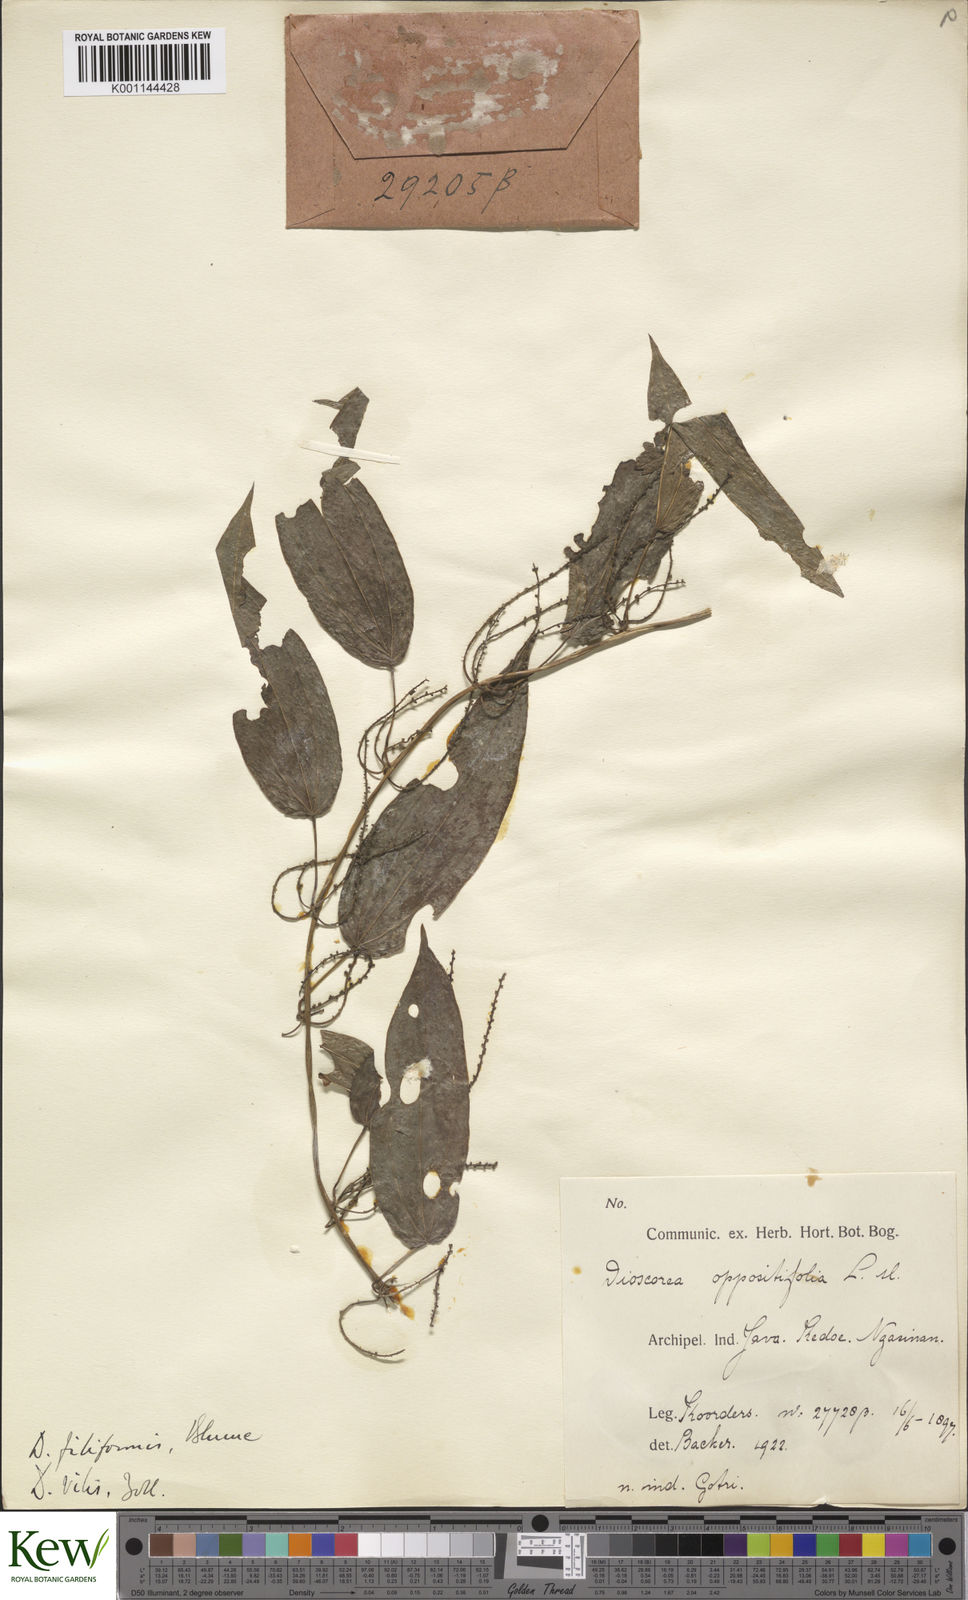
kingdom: Plantae
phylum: Tracheophyta
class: Liliopsida
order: Dioscoreales
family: Dioscoreaceae
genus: Dioscorea
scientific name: Dioscorea filiformis
